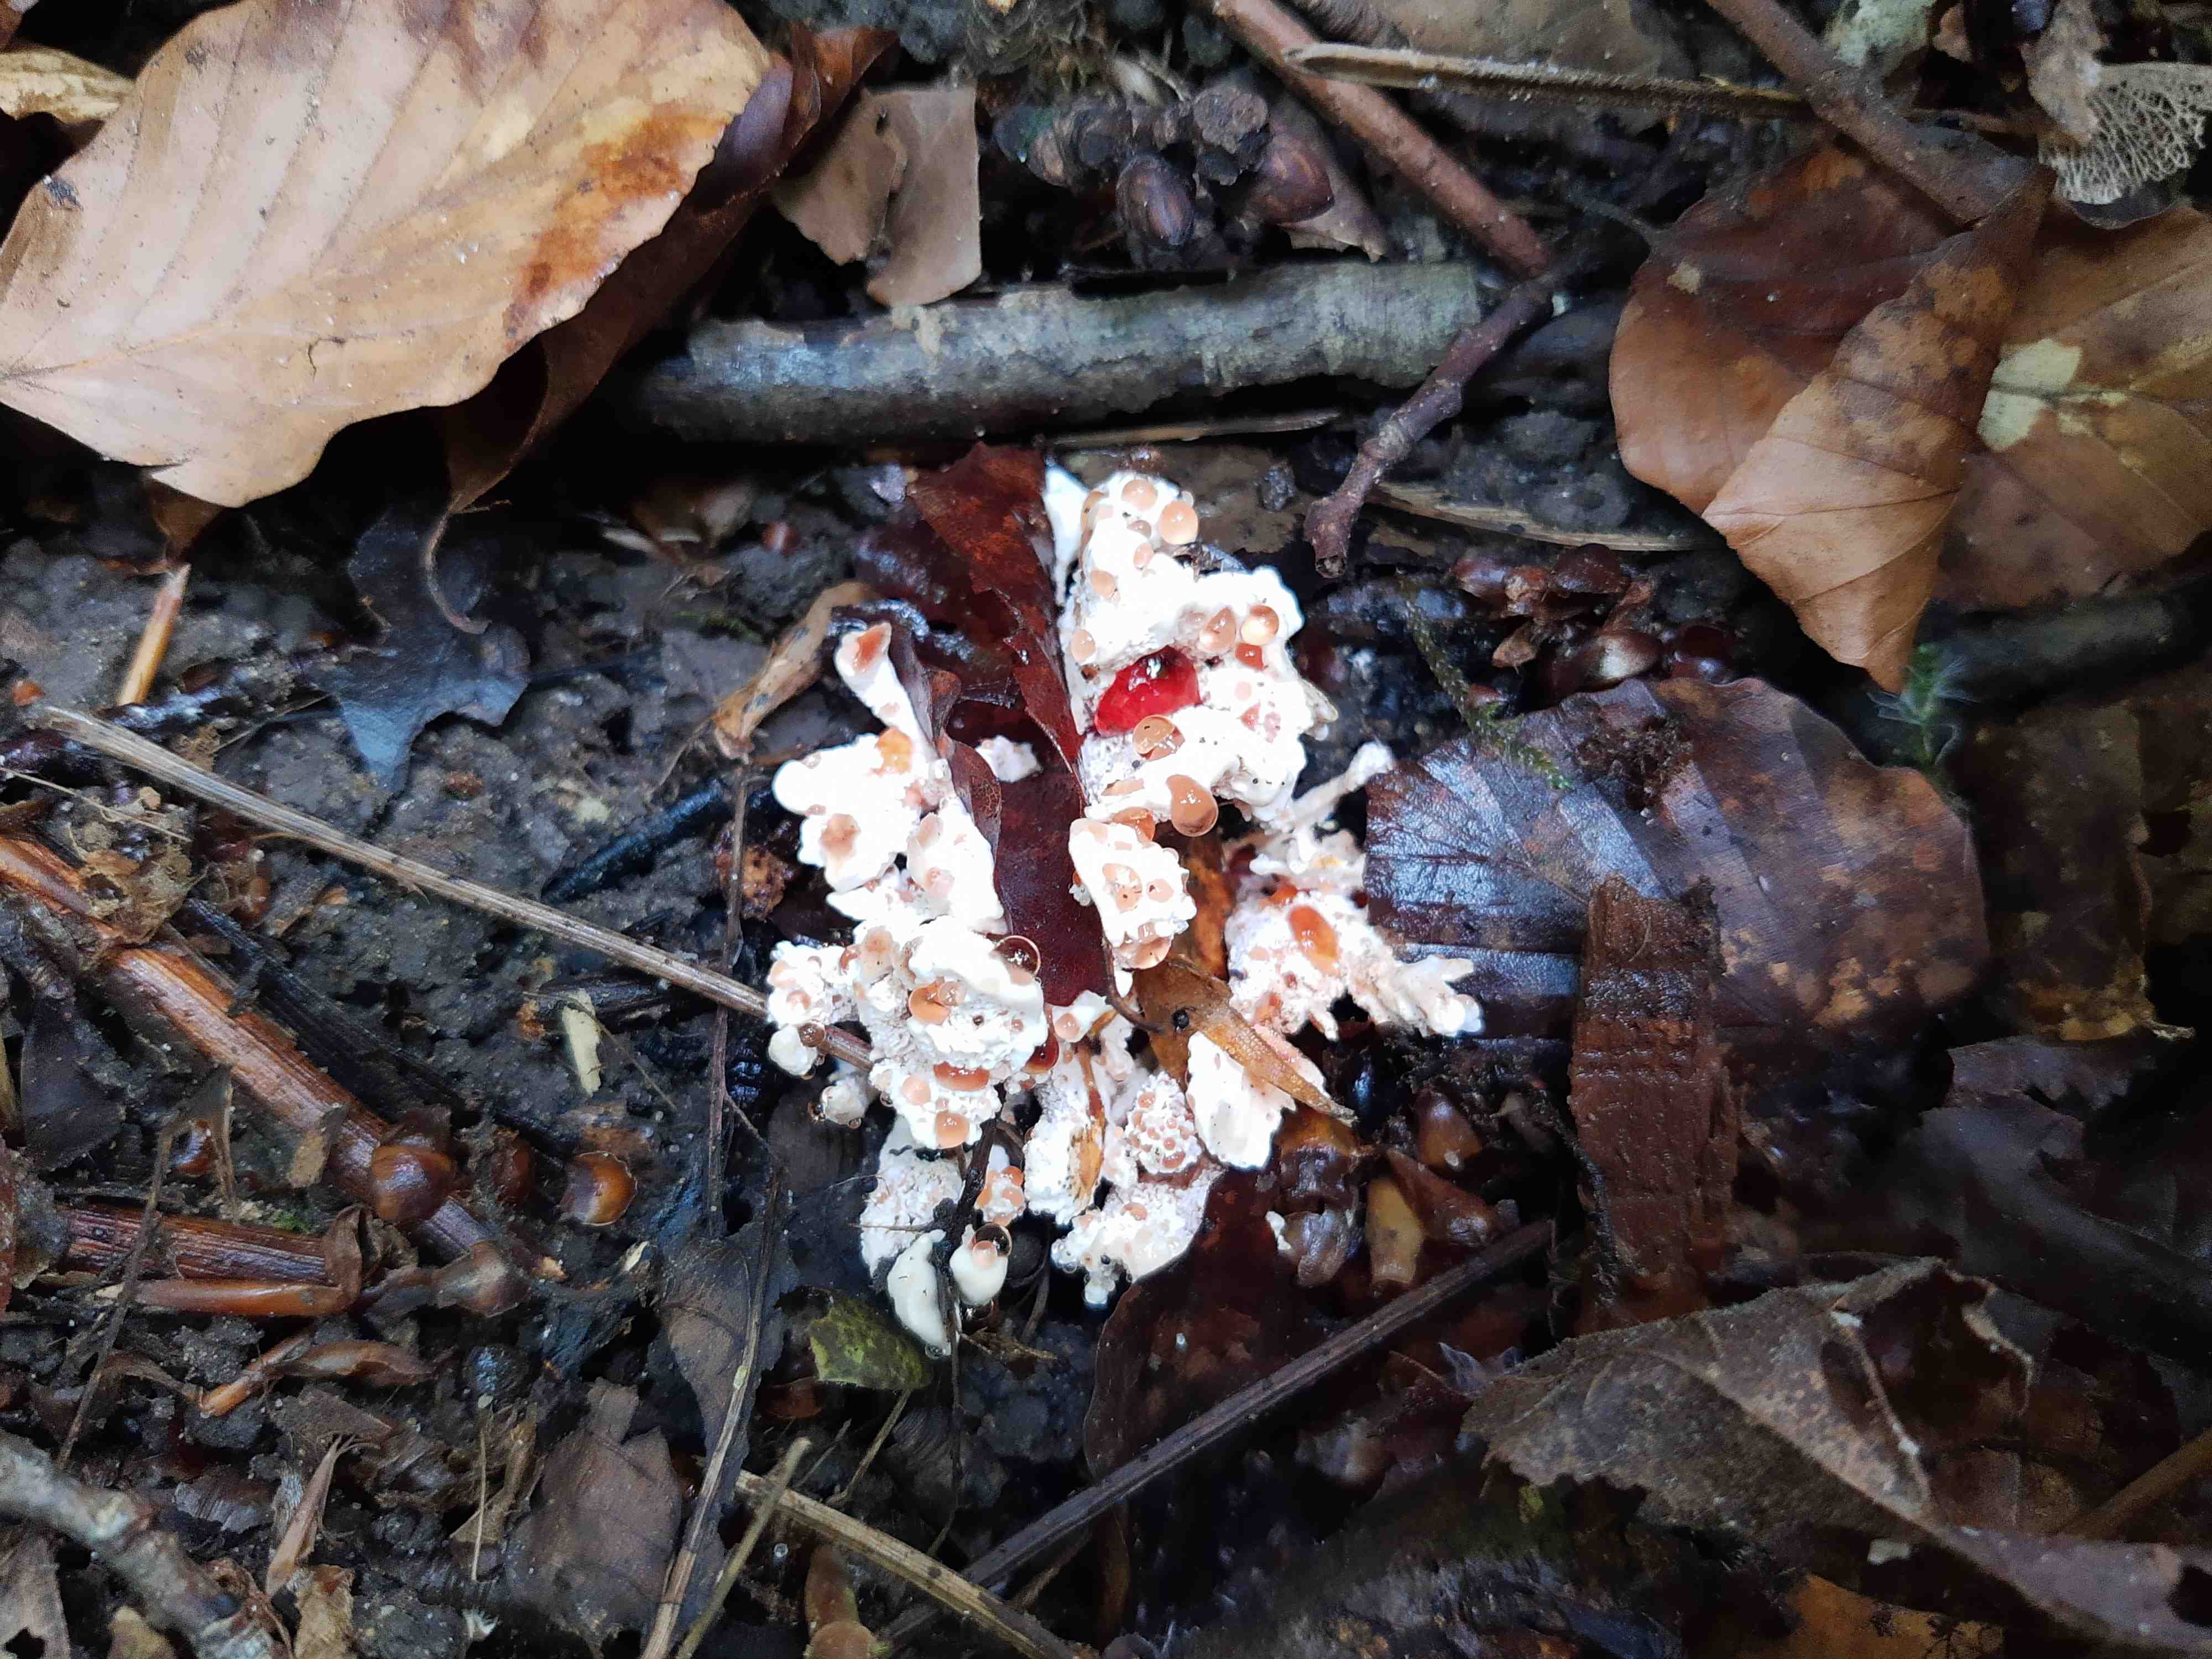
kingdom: Fungi
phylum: Basidiomycota
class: Agaricomycetes
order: Polyporales
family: Podoscyphaceae
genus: Abortiporus
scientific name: Abortiporus biennis
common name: rødmende pjalteporesvamp
